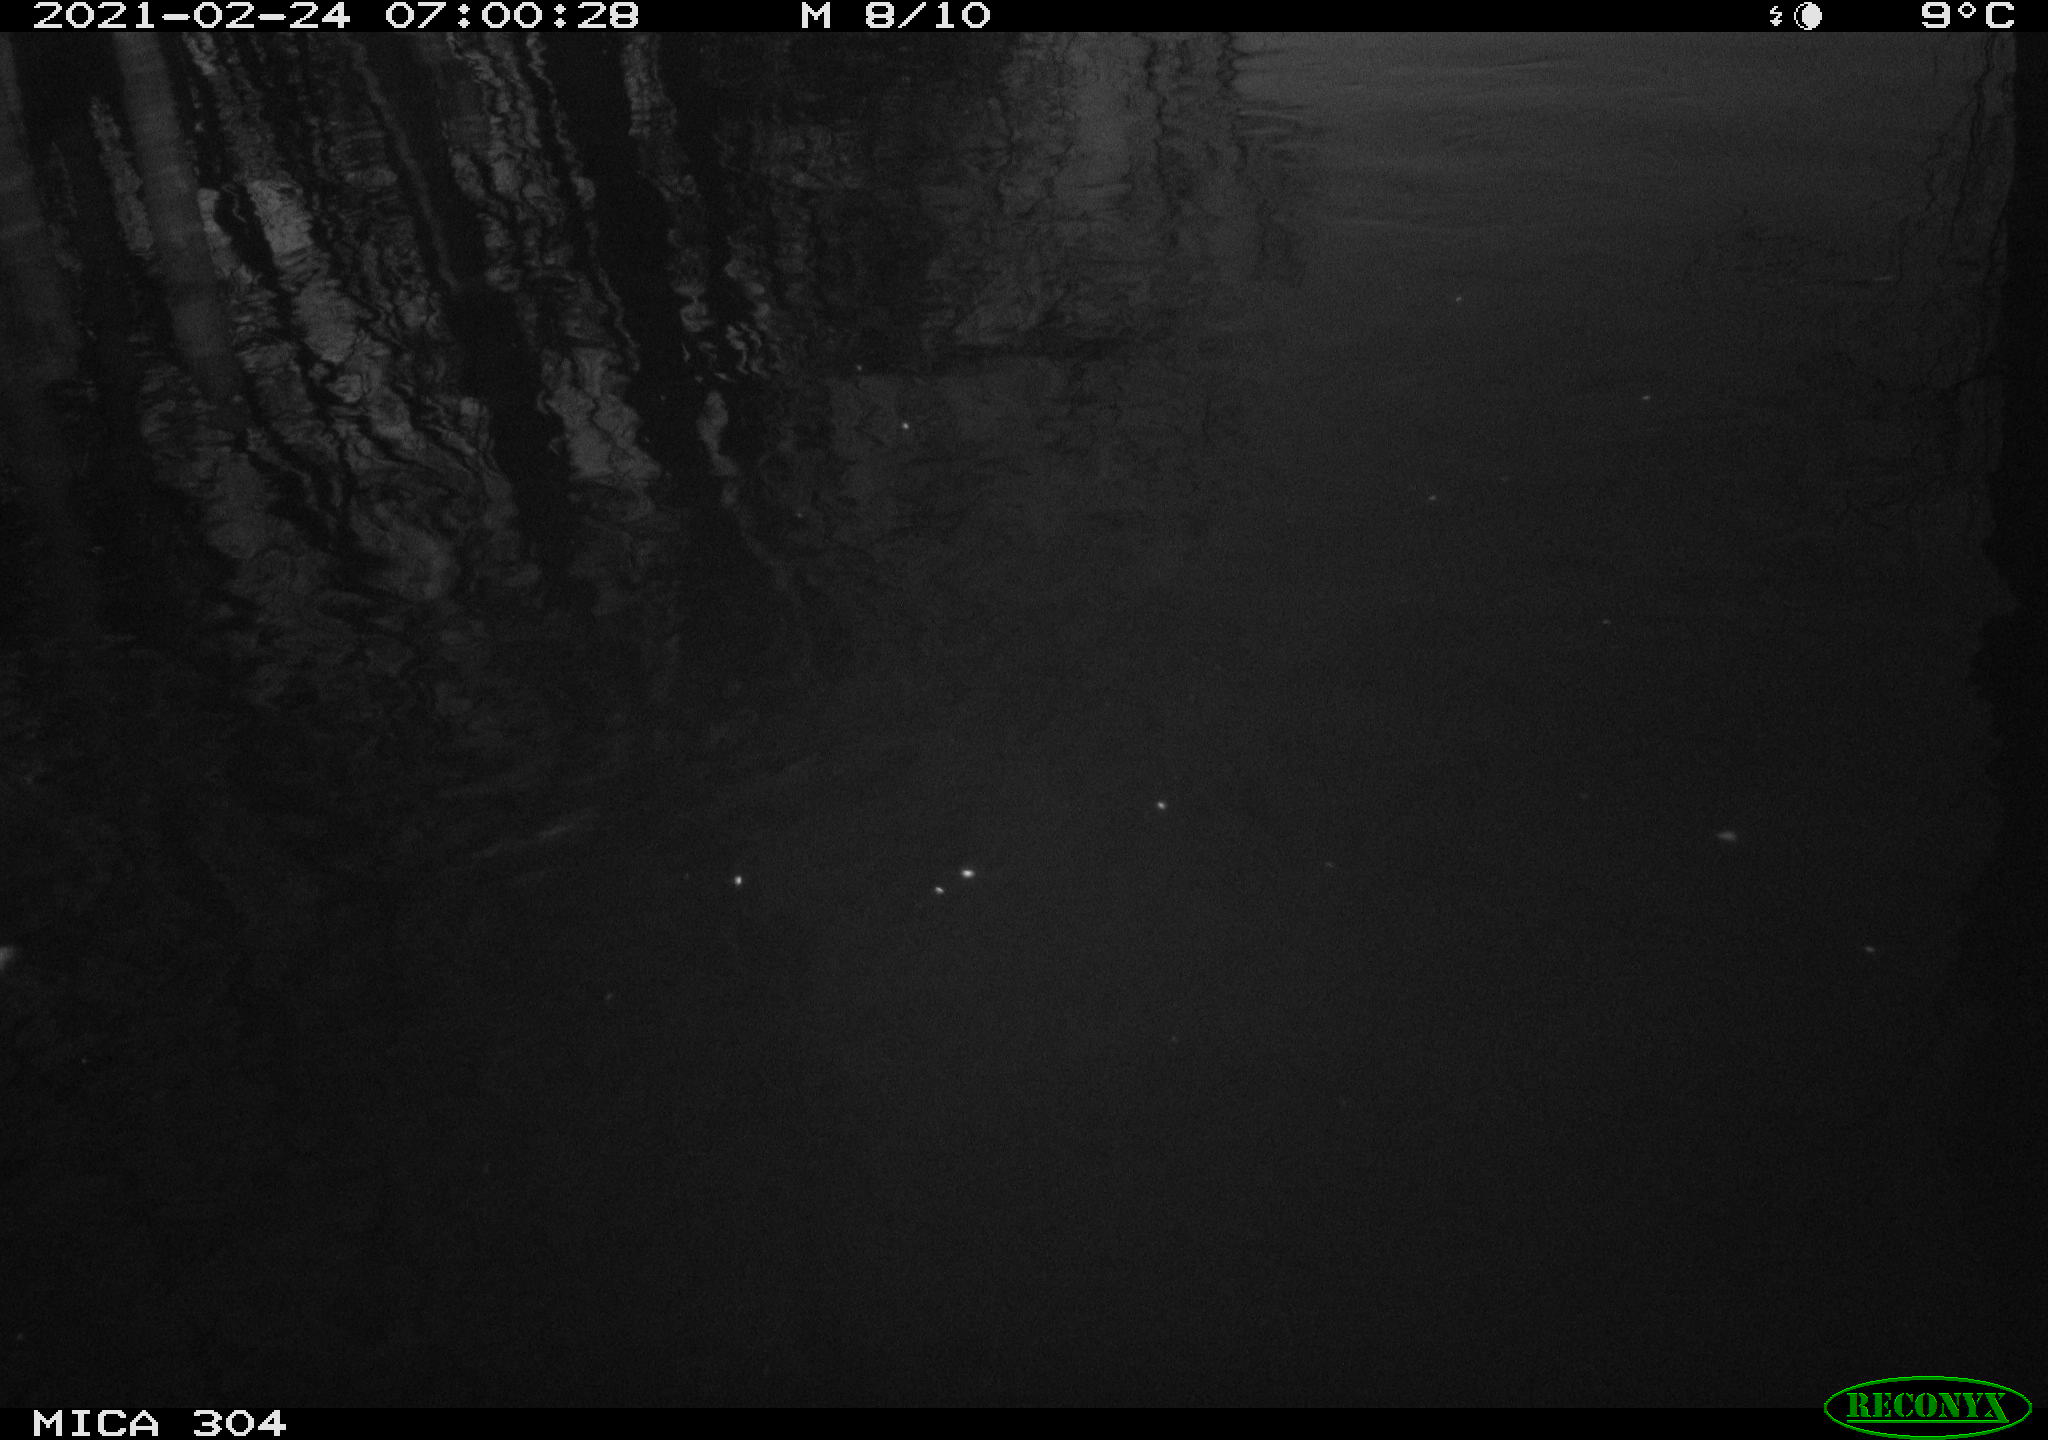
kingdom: Animalia
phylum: Chordata
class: Aves
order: Gruiformes
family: Rallidae
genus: Gallinula
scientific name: Gallinula chloropus
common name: Common moorhen
